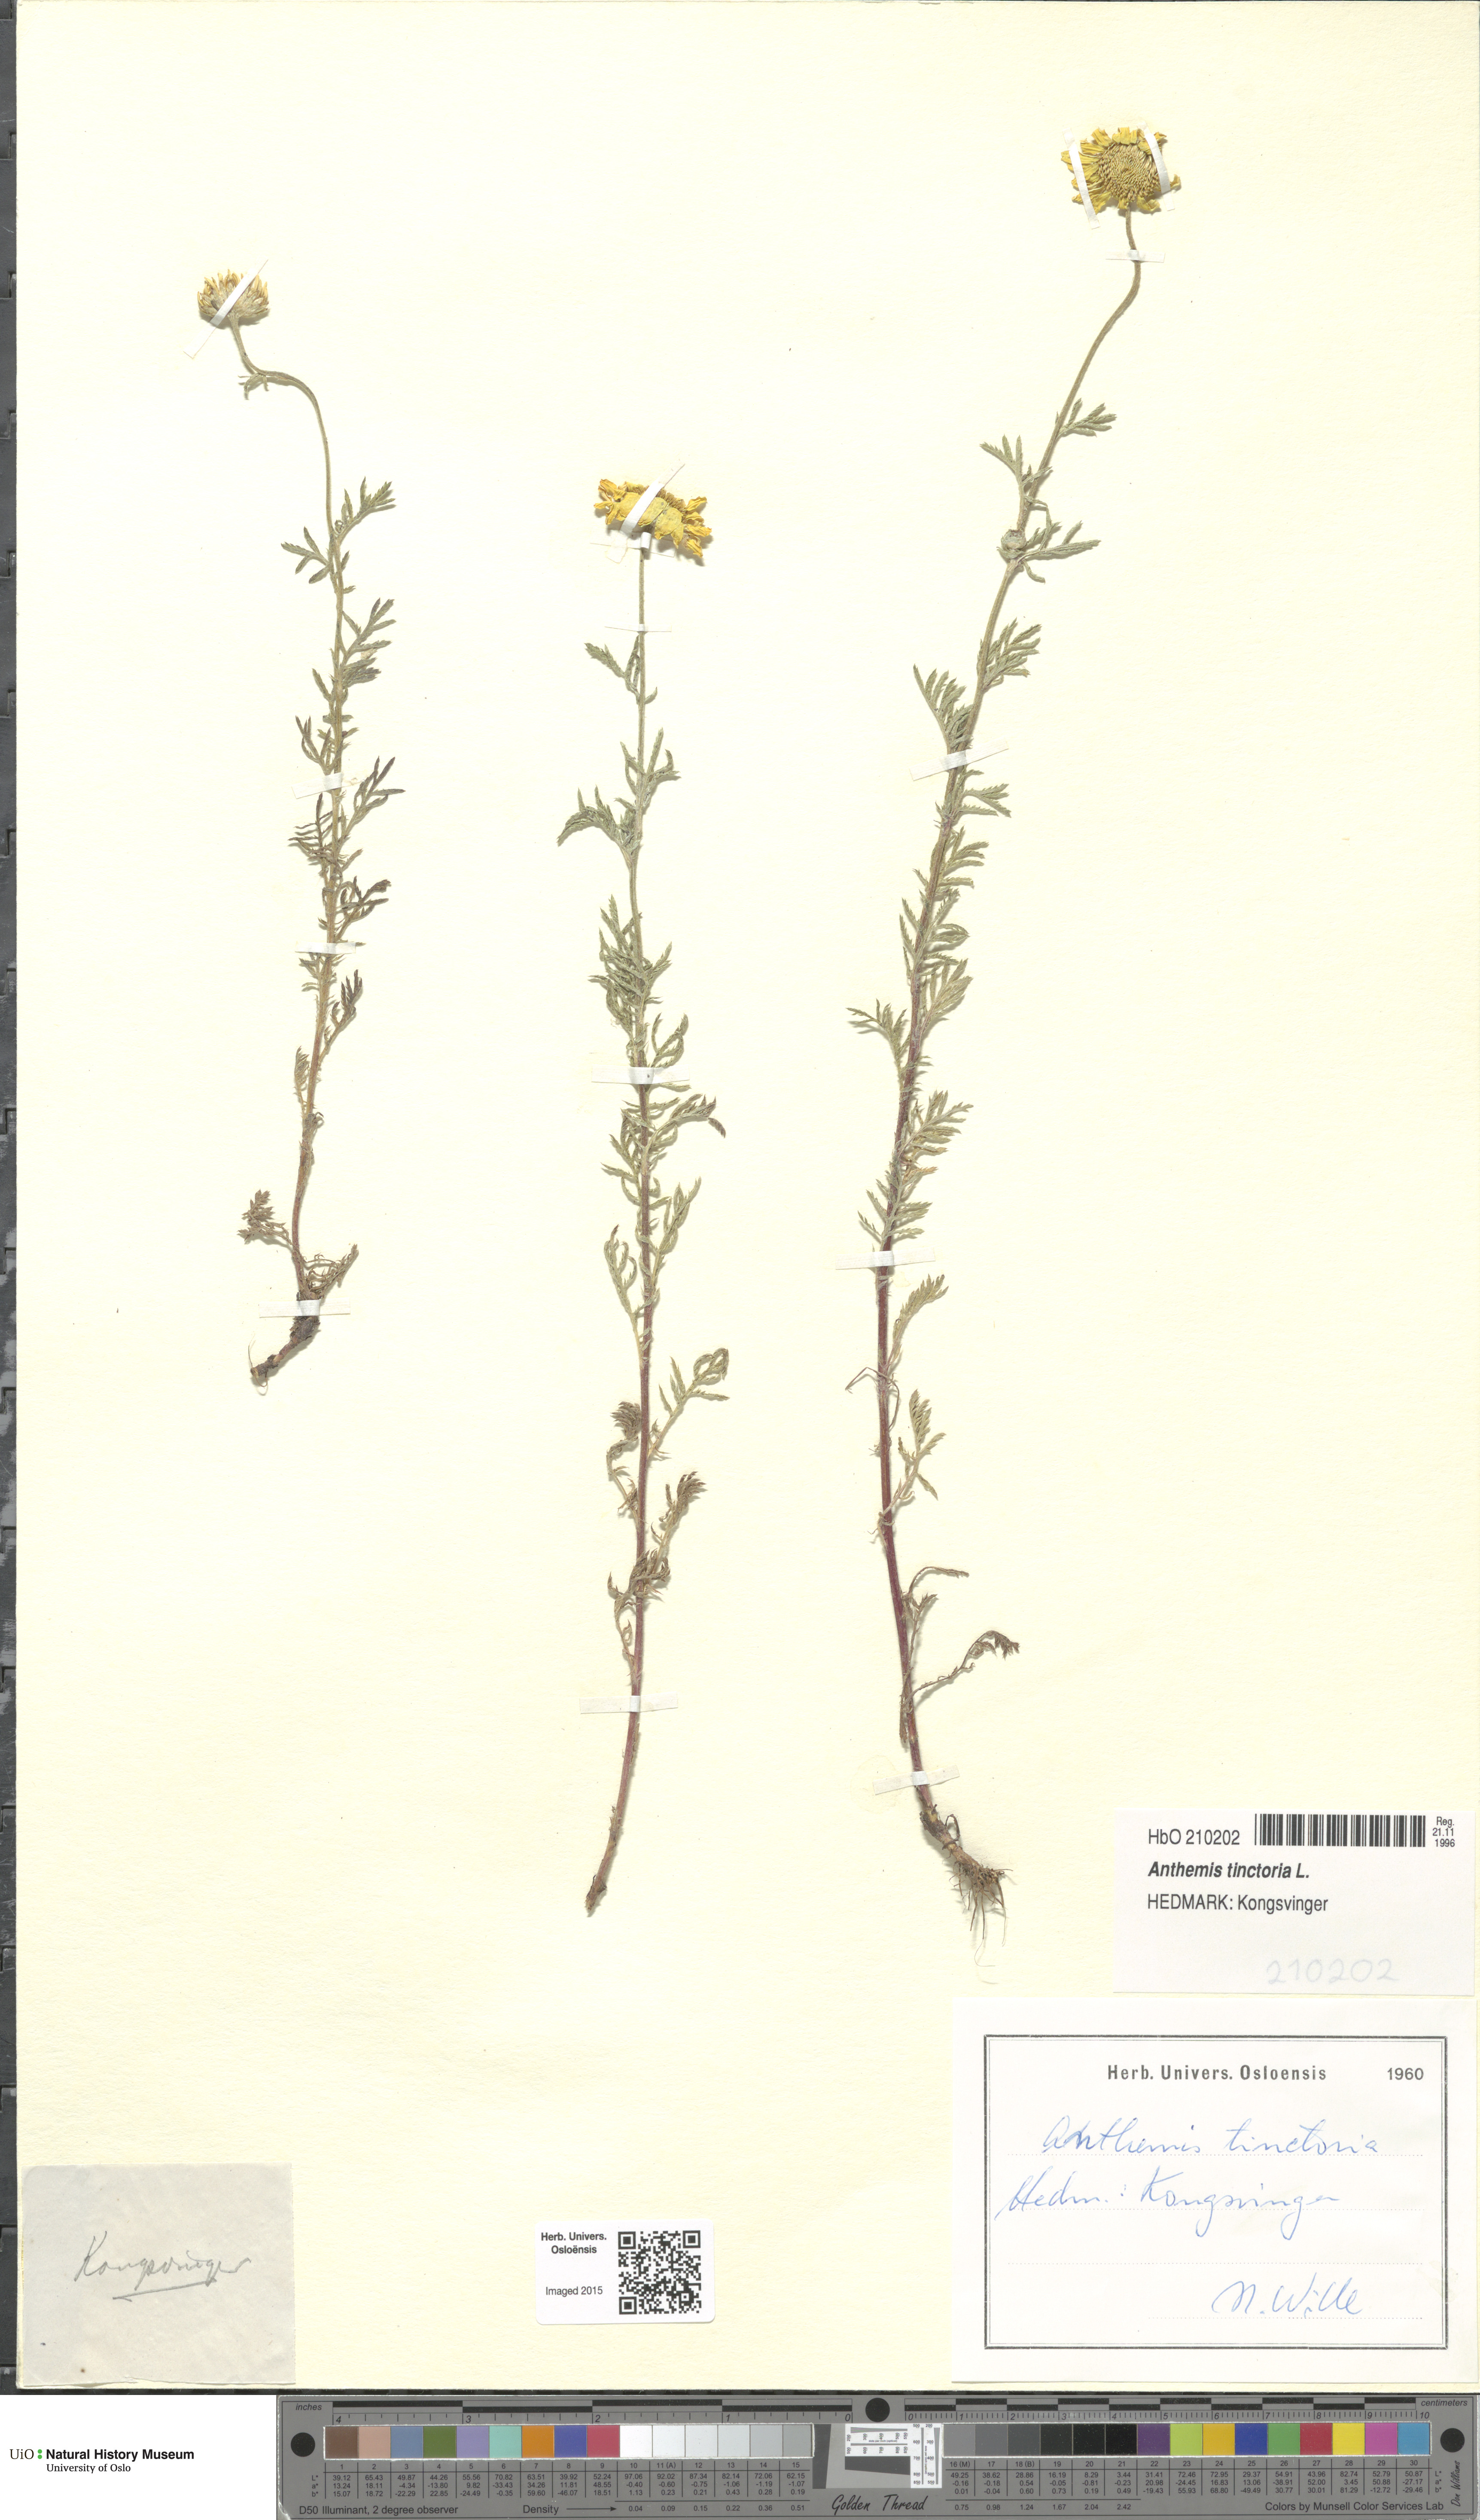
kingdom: Plantae
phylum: Tracheophyta
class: Magnoliopsida
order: Asterales
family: Asteraceae
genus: Cota
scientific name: Cota tinctoria
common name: Golden chamomile
